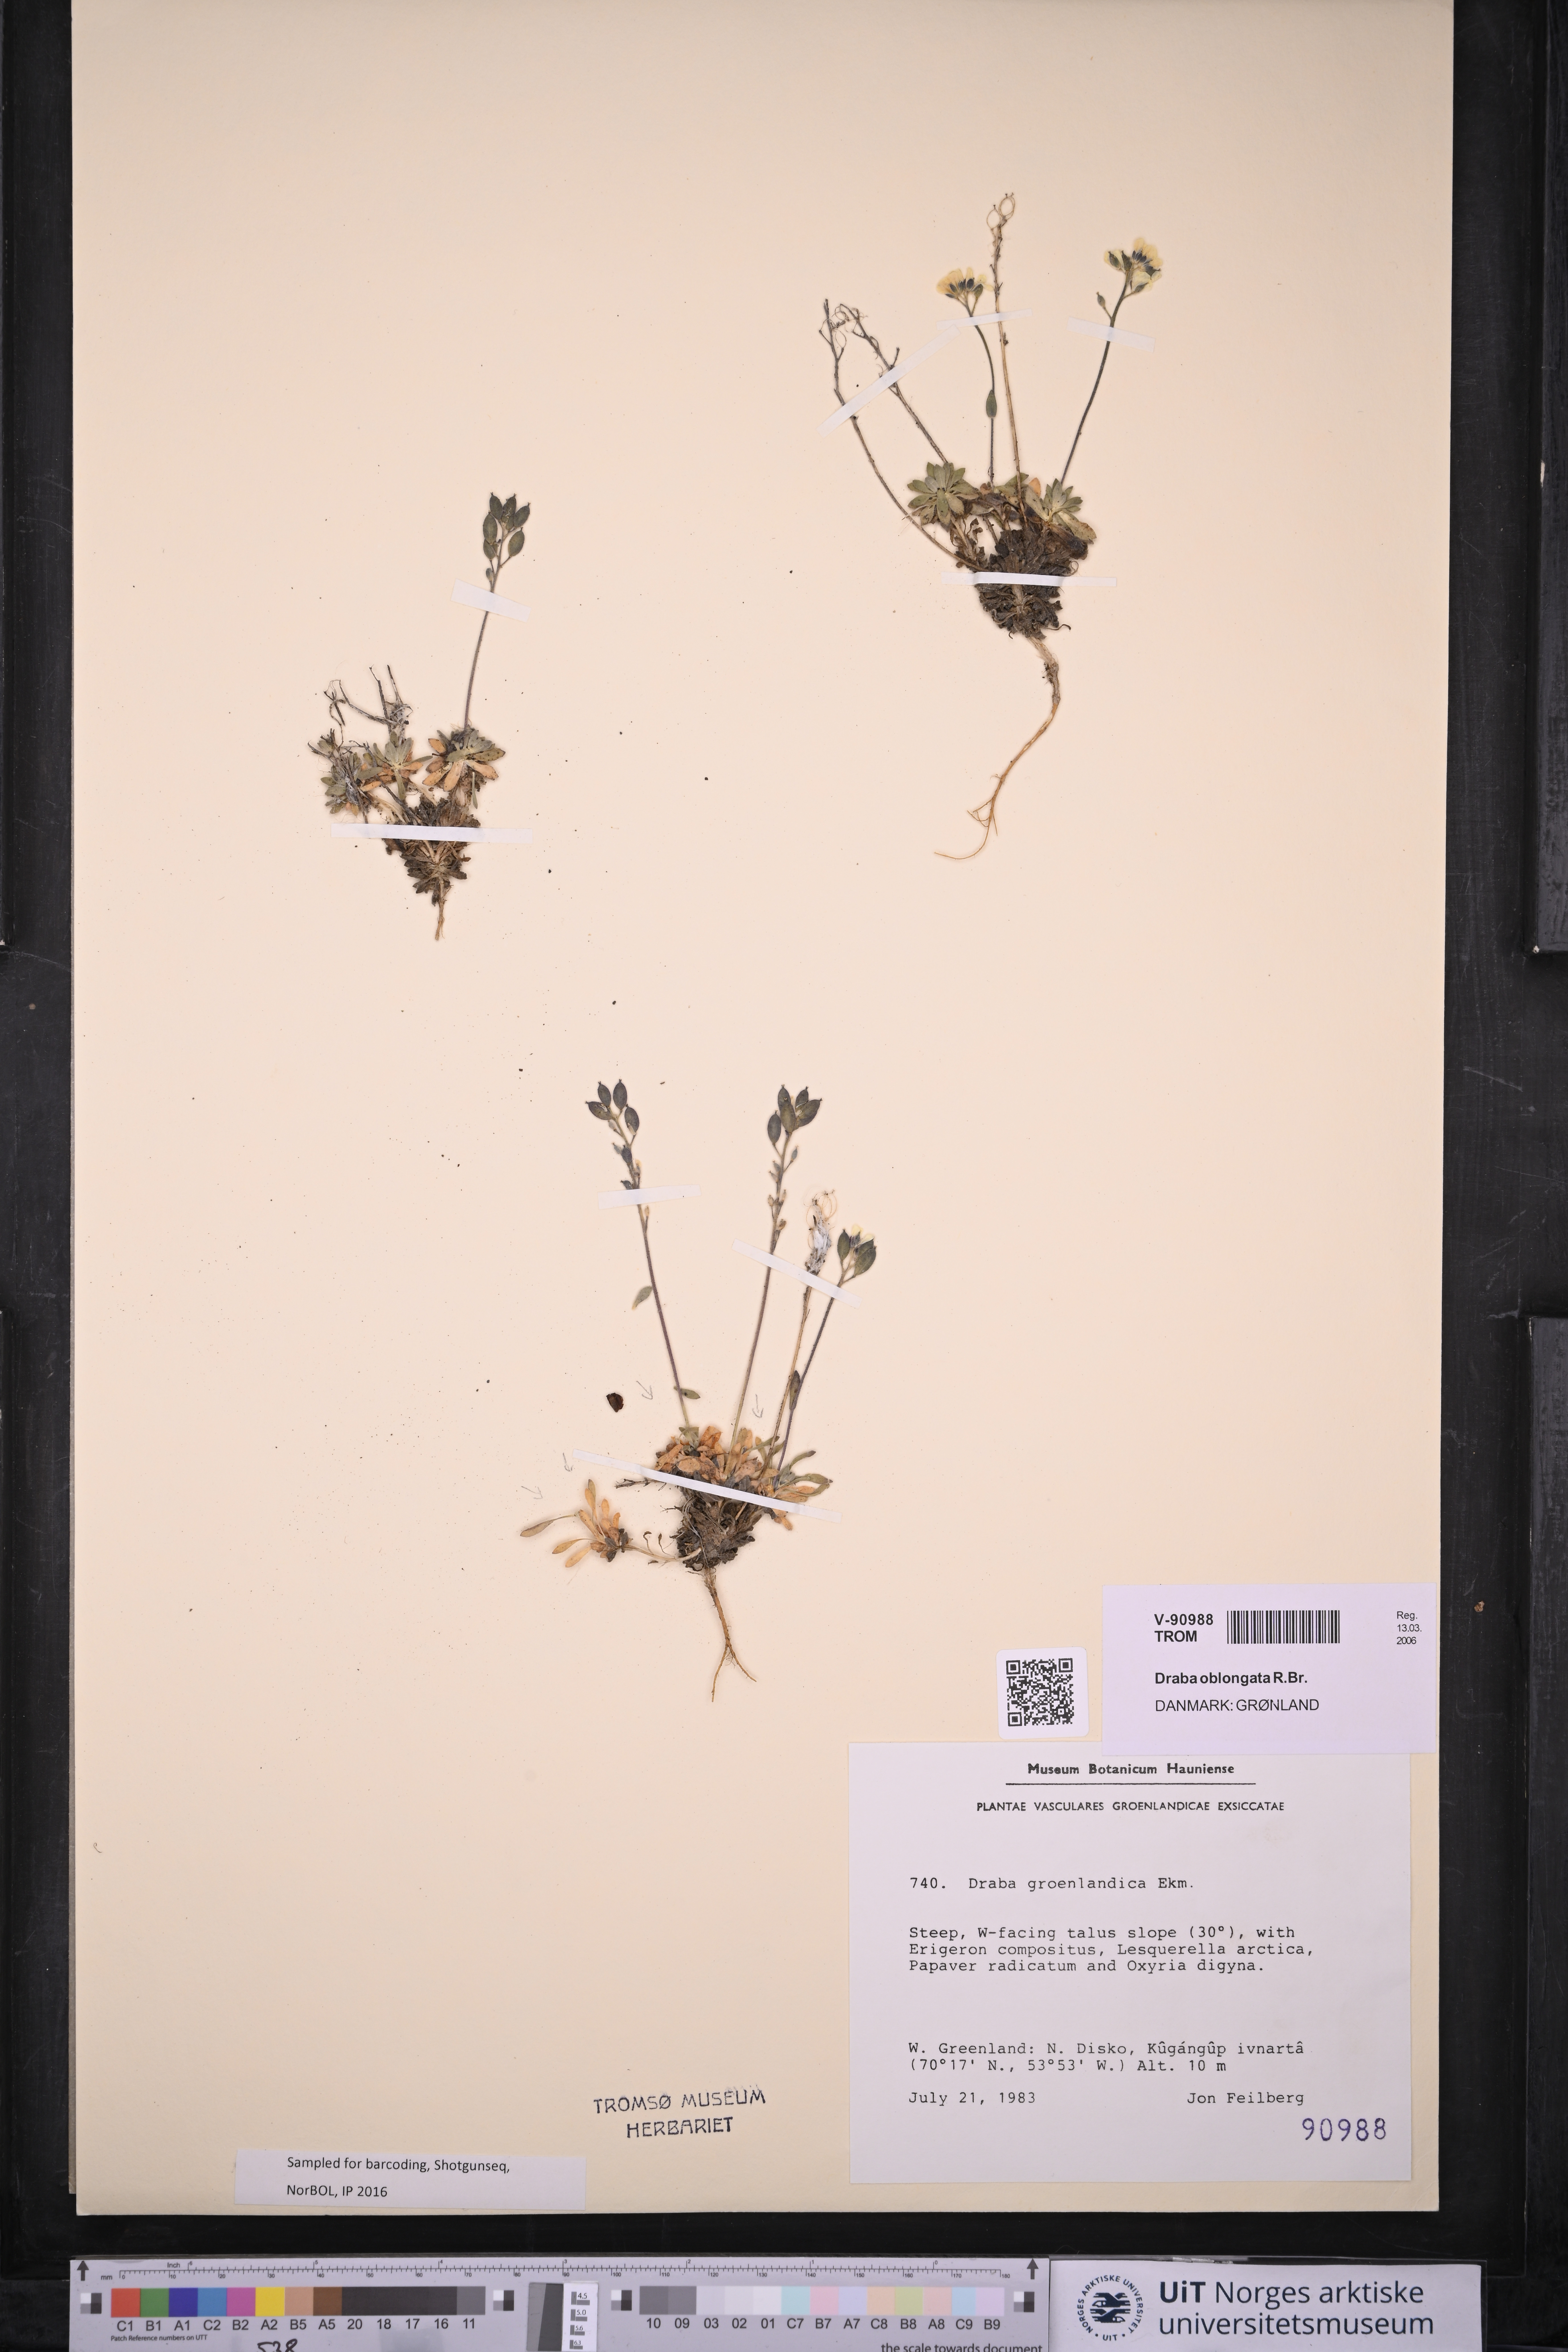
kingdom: Plantae
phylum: Tracheophyta
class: Magnoliopsida
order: Brassicales
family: Brassicaceae
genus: Draba
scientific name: Draba oblongata
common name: Canadian arctic draba
